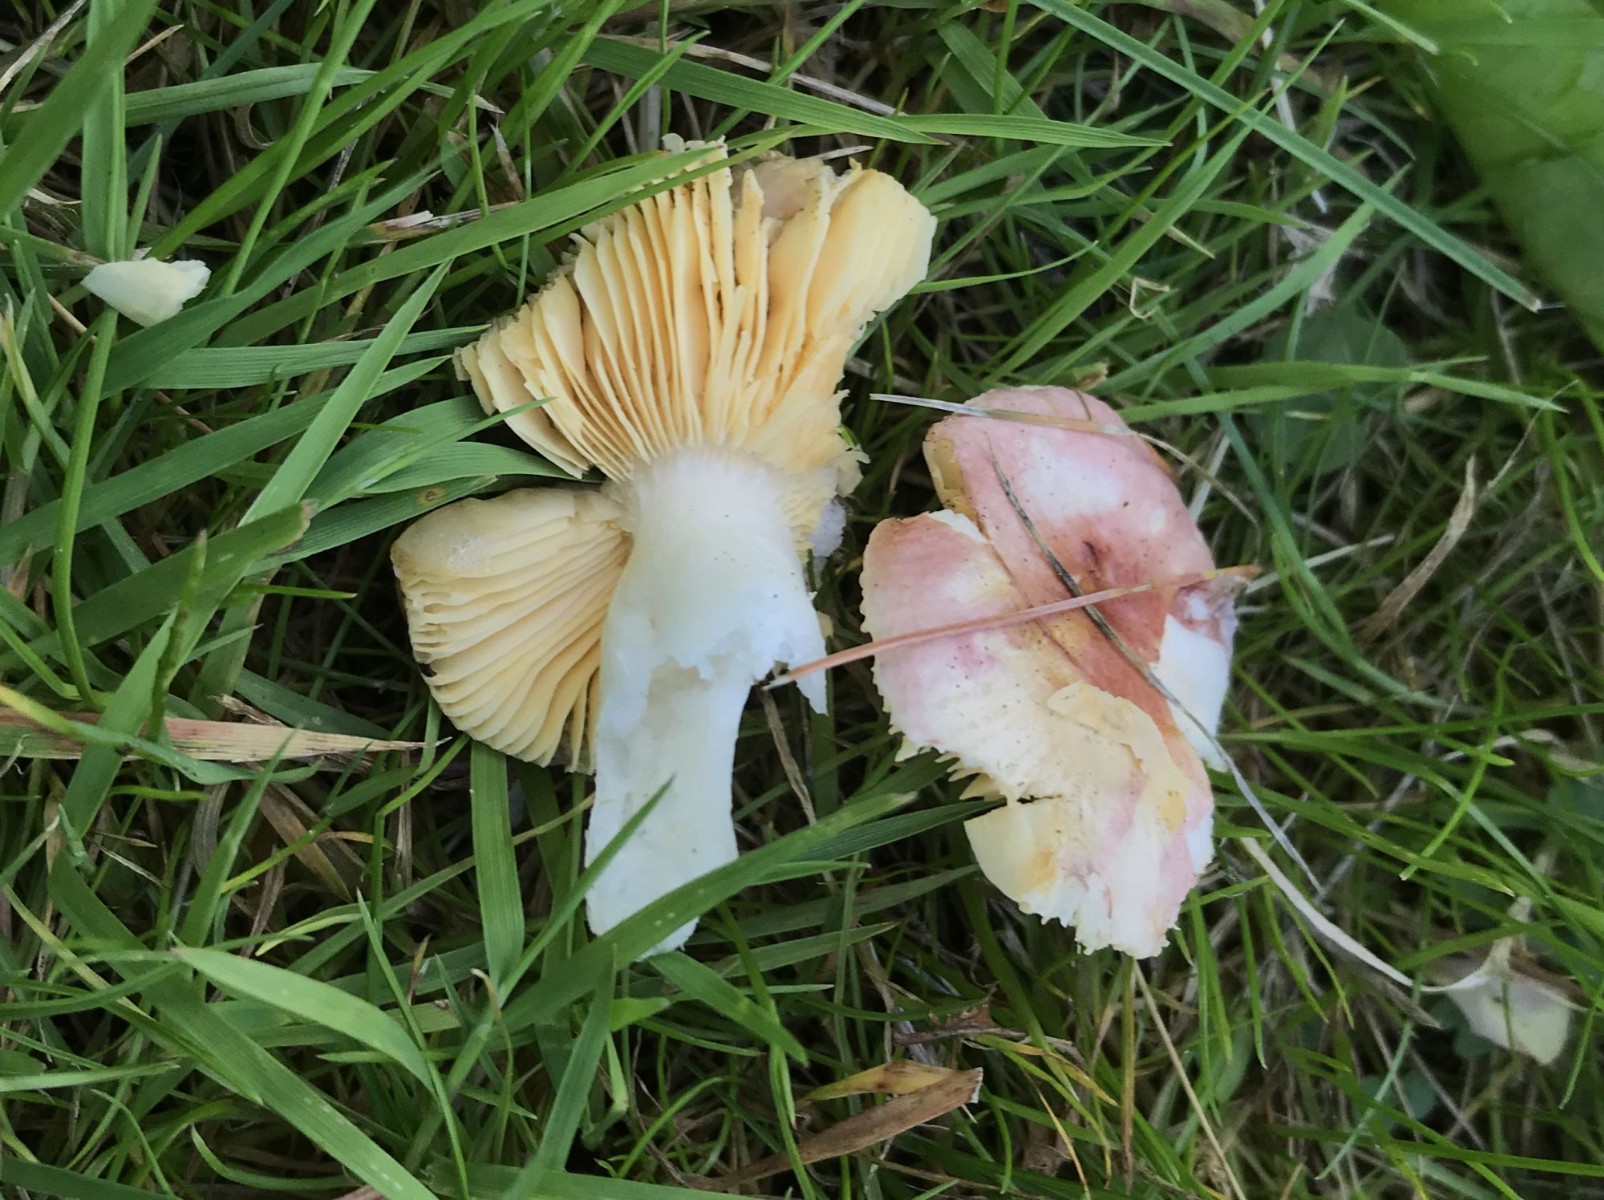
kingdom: Fungi
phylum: Basidiomycota
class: Agaricomycetes
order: Russulales
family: Russulaceae
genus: Russula
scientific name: Russula odorata
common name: duft-skørhat
